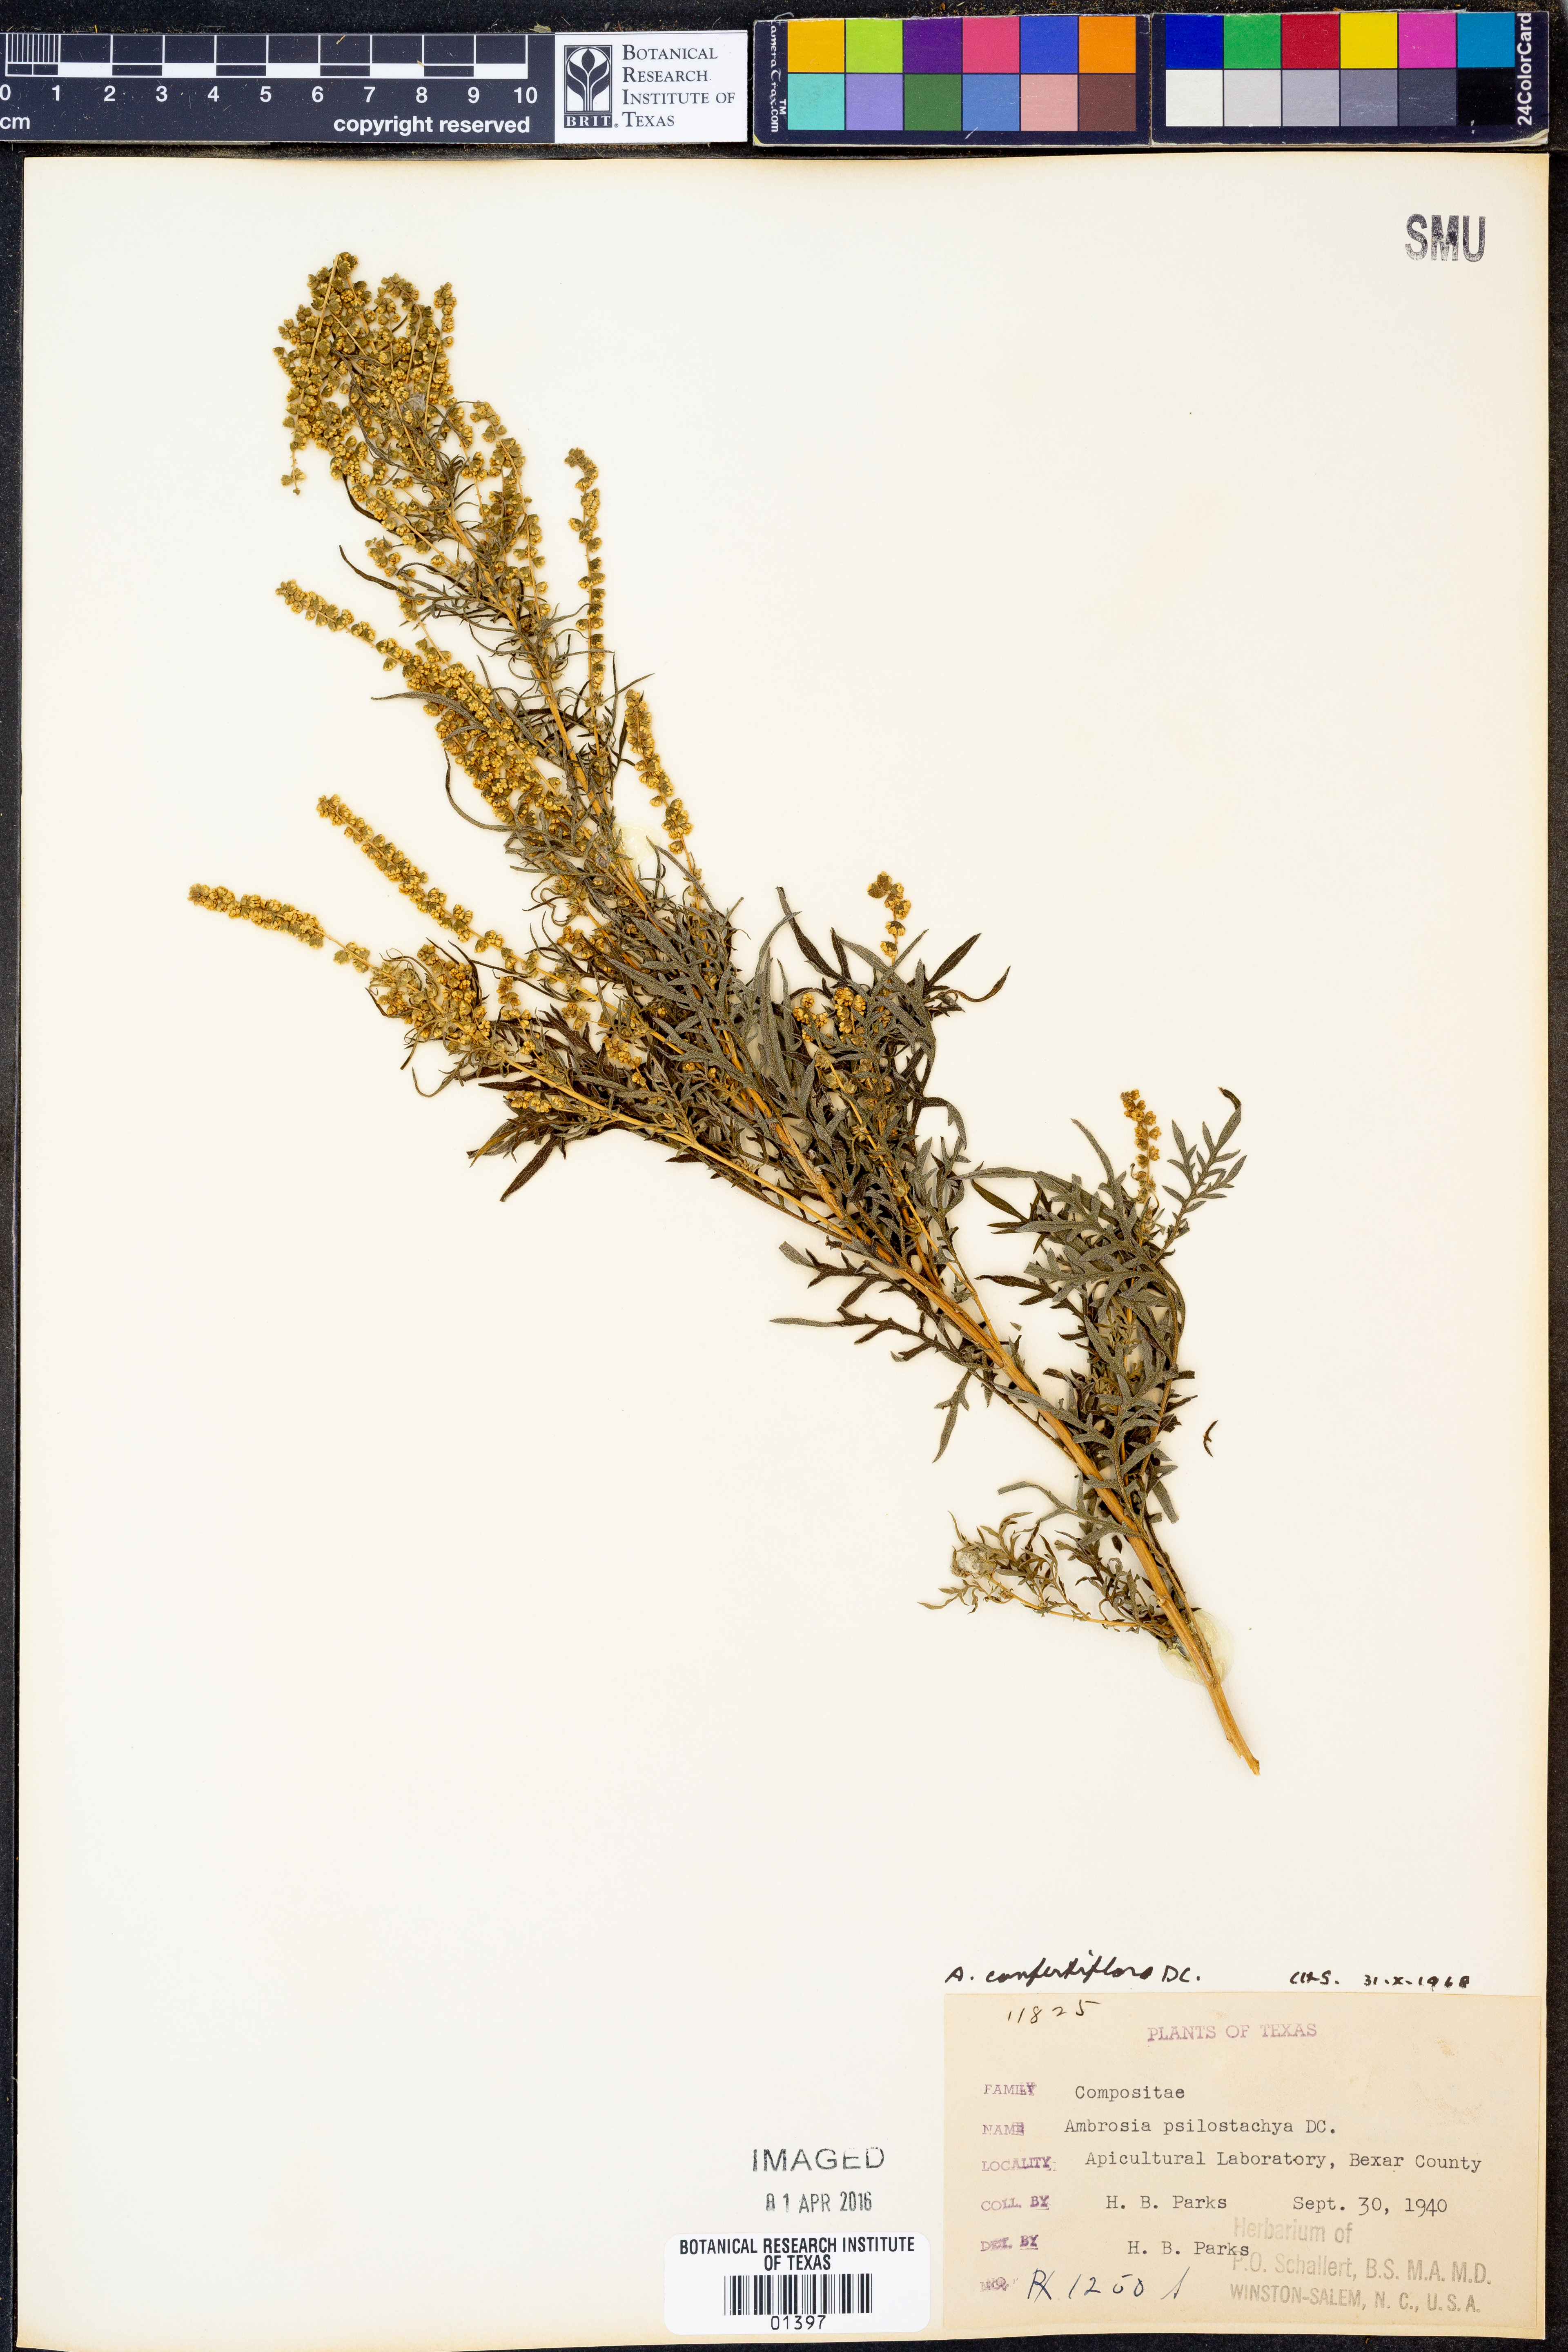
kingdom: Plantae
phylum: Tracheophyta
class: Magnoliopsida
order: Asterales
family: Asteraceae
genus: Ambrosia
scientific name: Ambrosia confertiflora
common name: Bur ragweed
